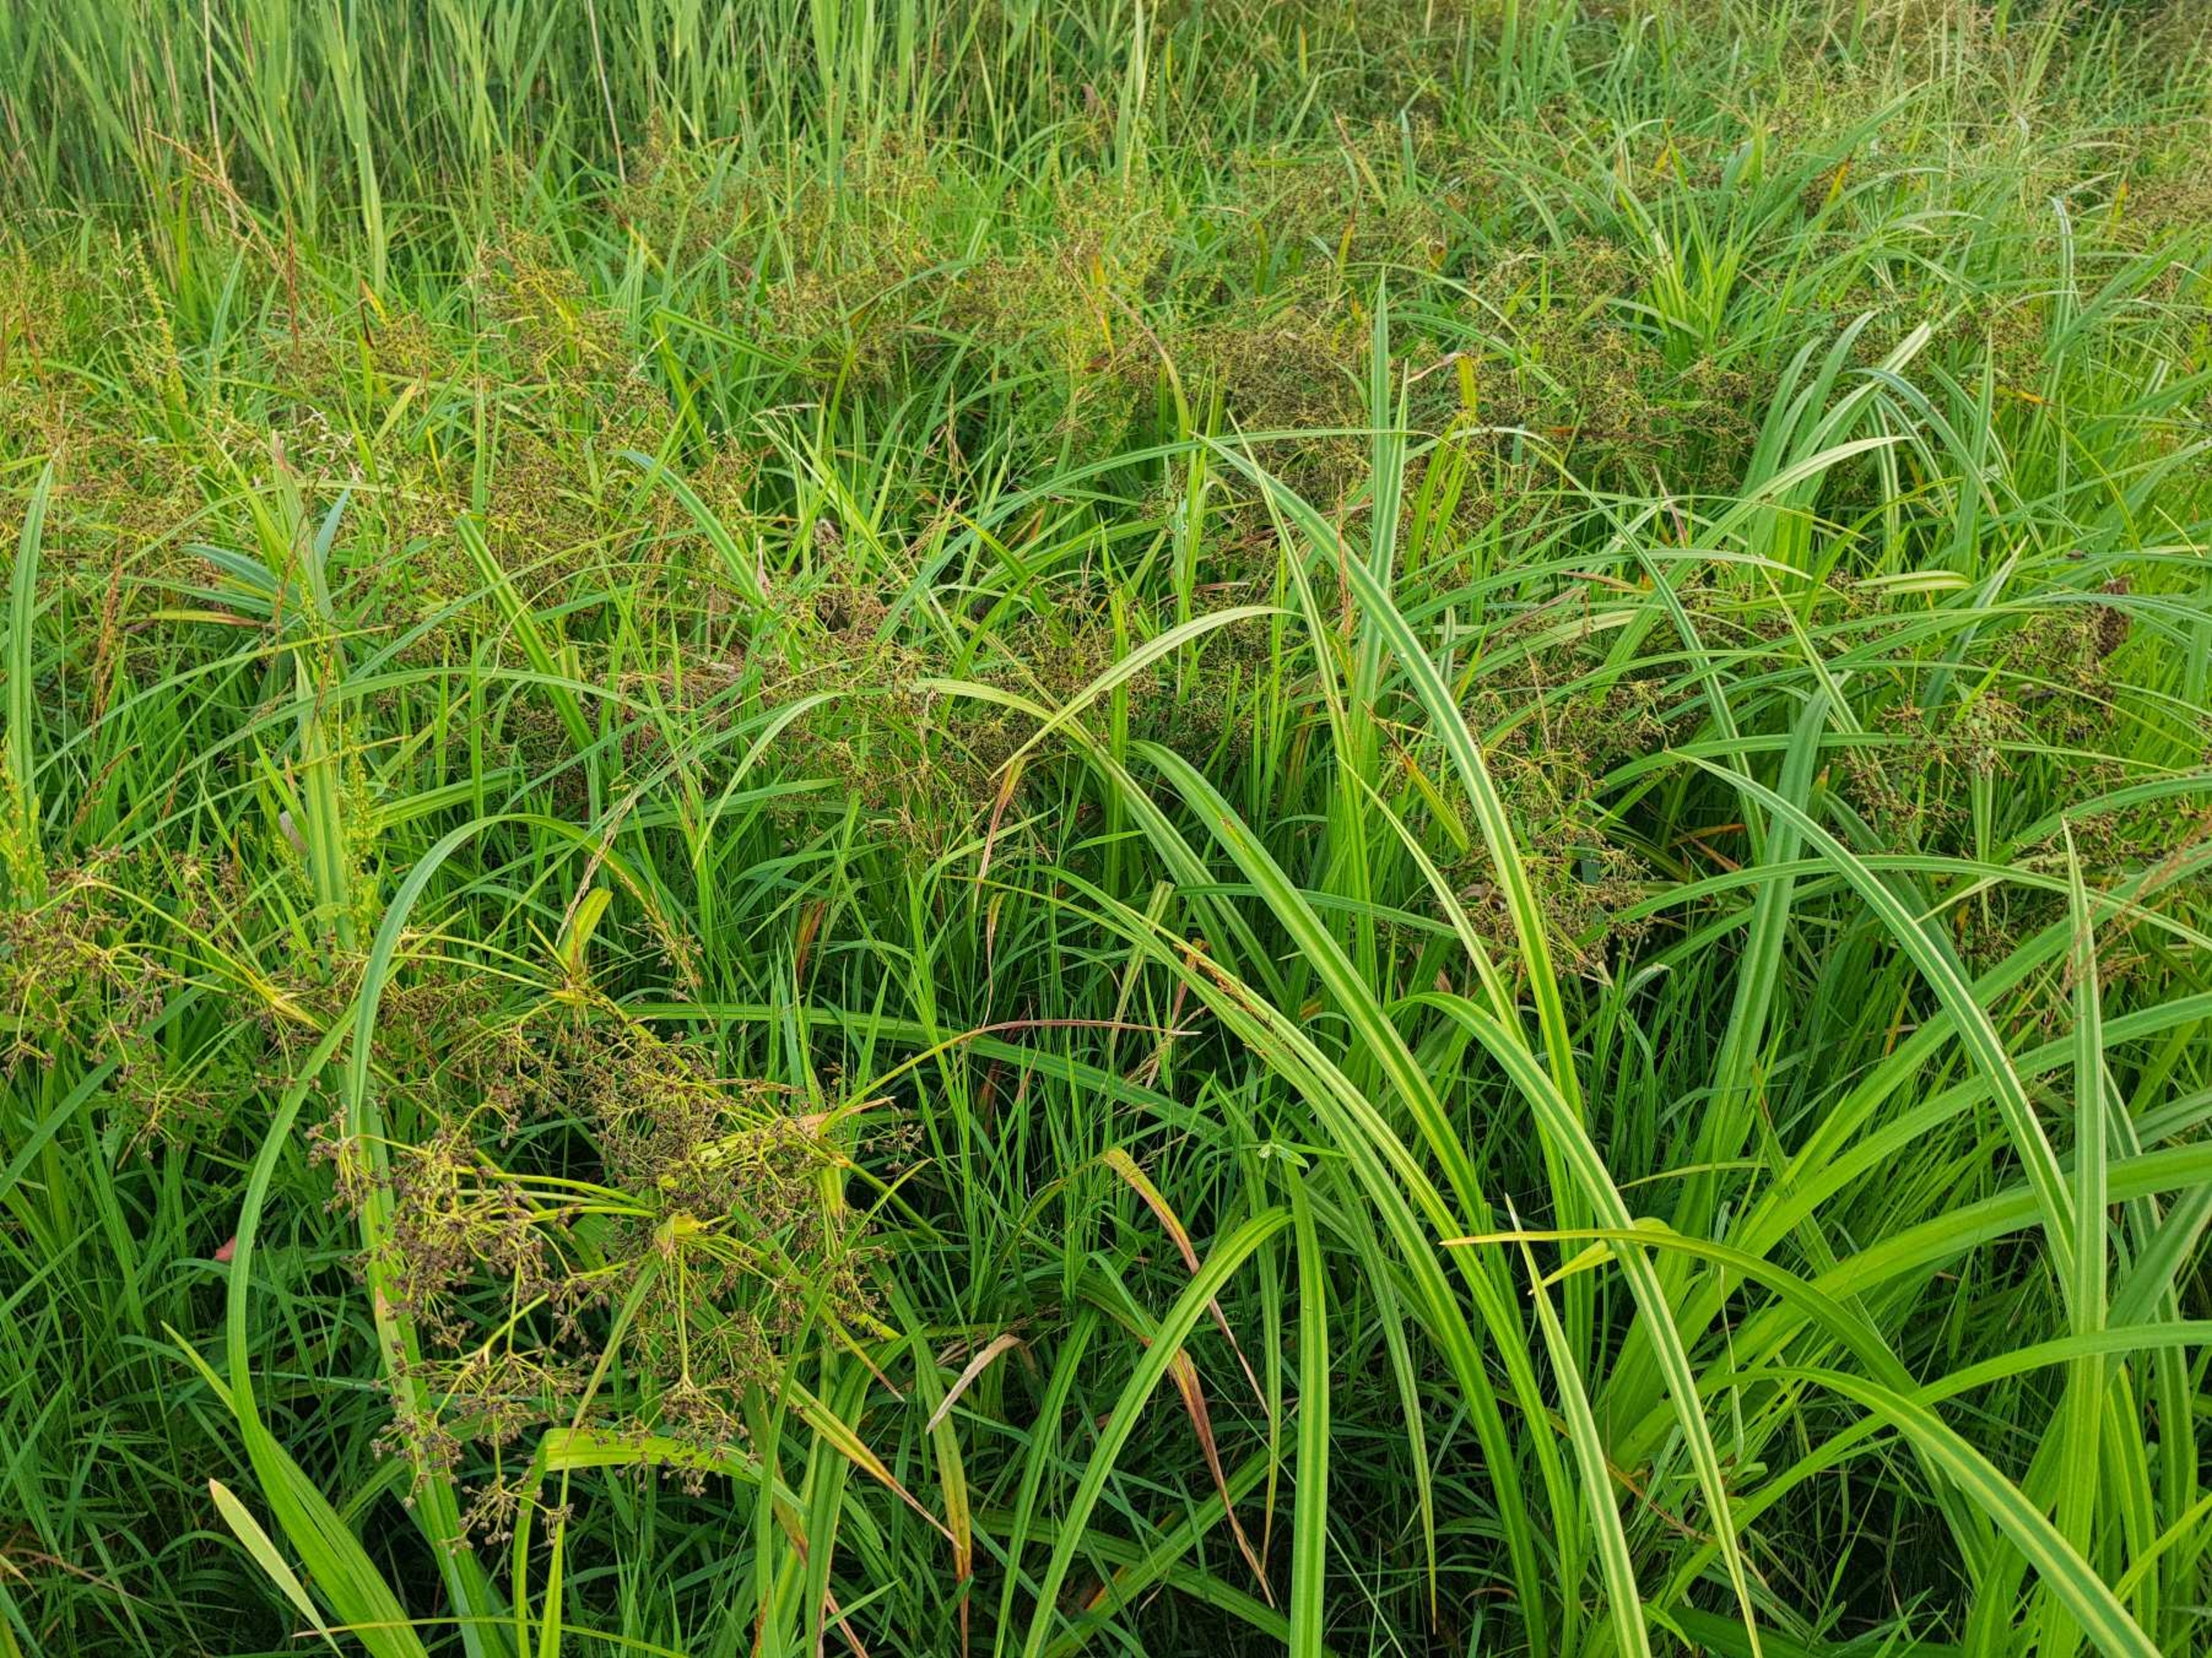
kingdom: Plantae
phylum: Tracheophyta
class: Liliopsida
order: Poales
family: Cyperaceae
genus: Scirpus
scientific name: Scirpus sylvaticus
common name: Skov-kogleaks
